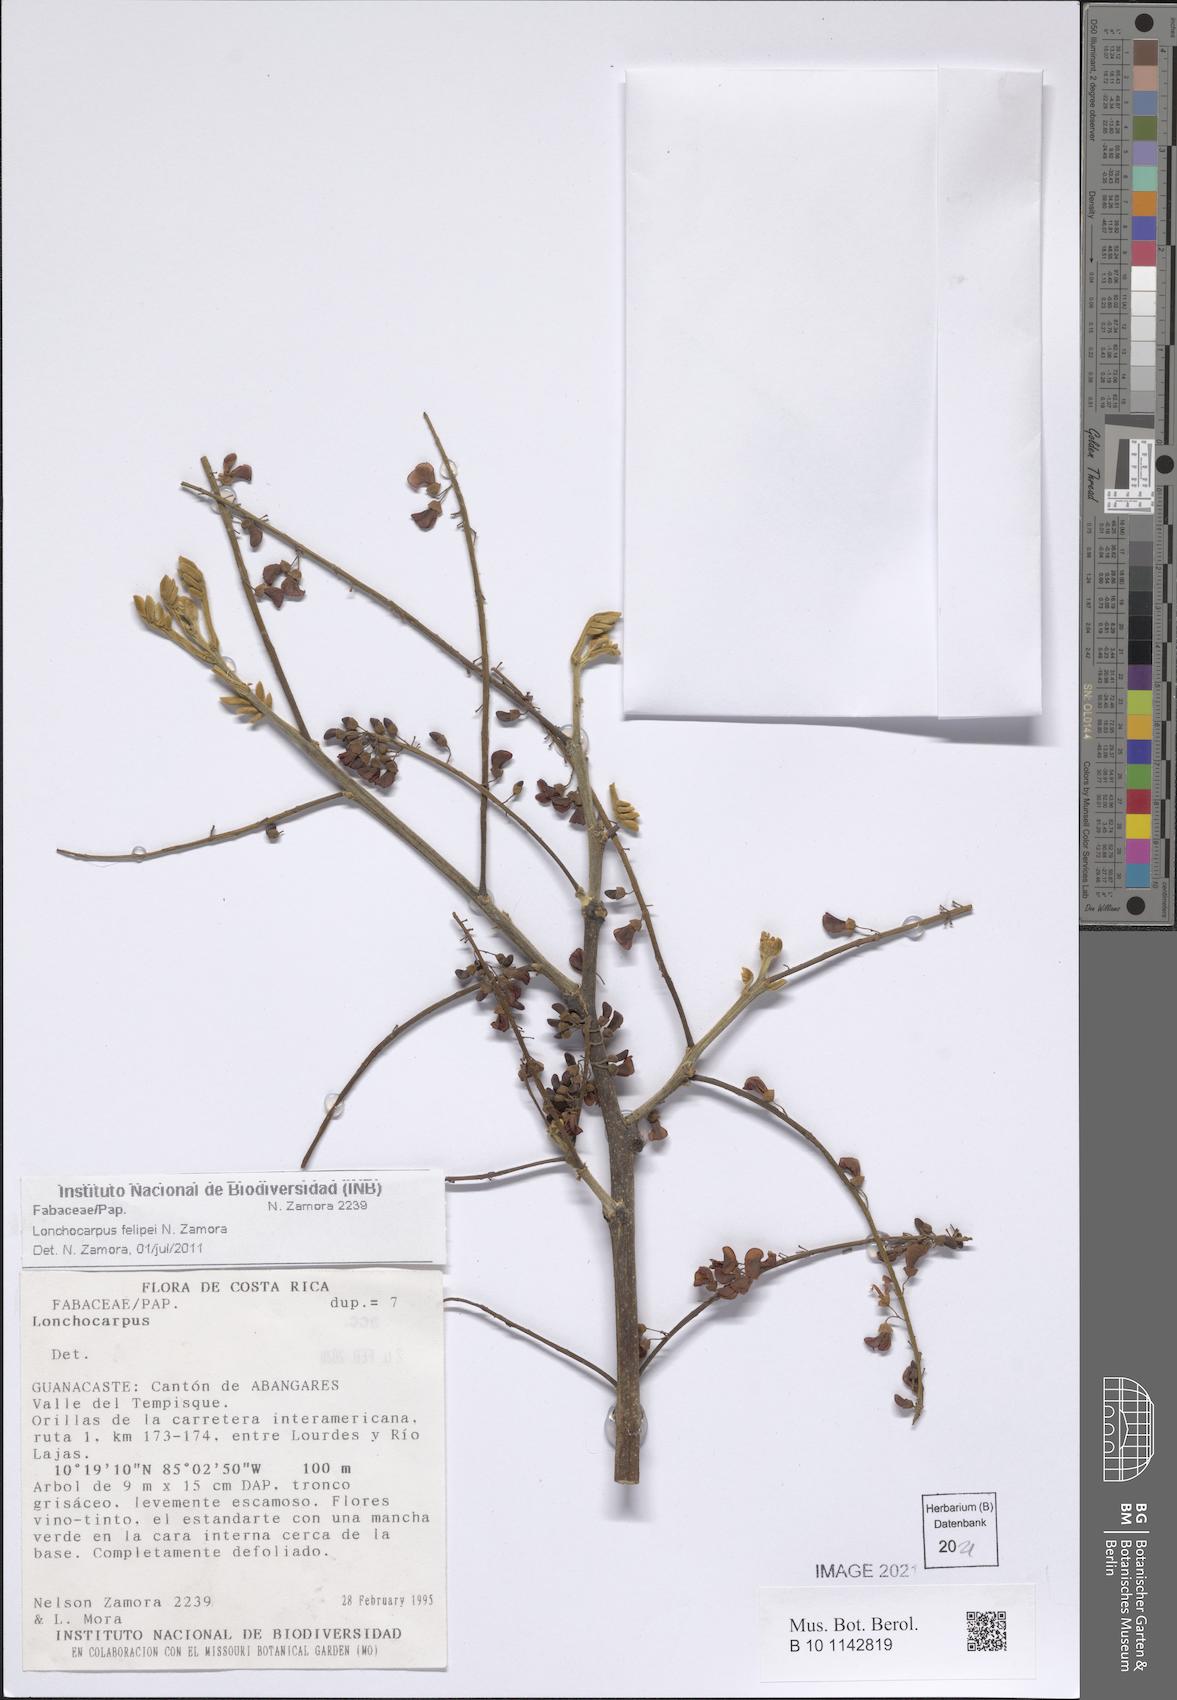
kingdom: Plantae
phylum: Tracheophyta
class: Magnoliopsida
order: Fabales
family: Fabaceae
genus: Lonchocarpus
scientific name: Lonchocarpus felipei
